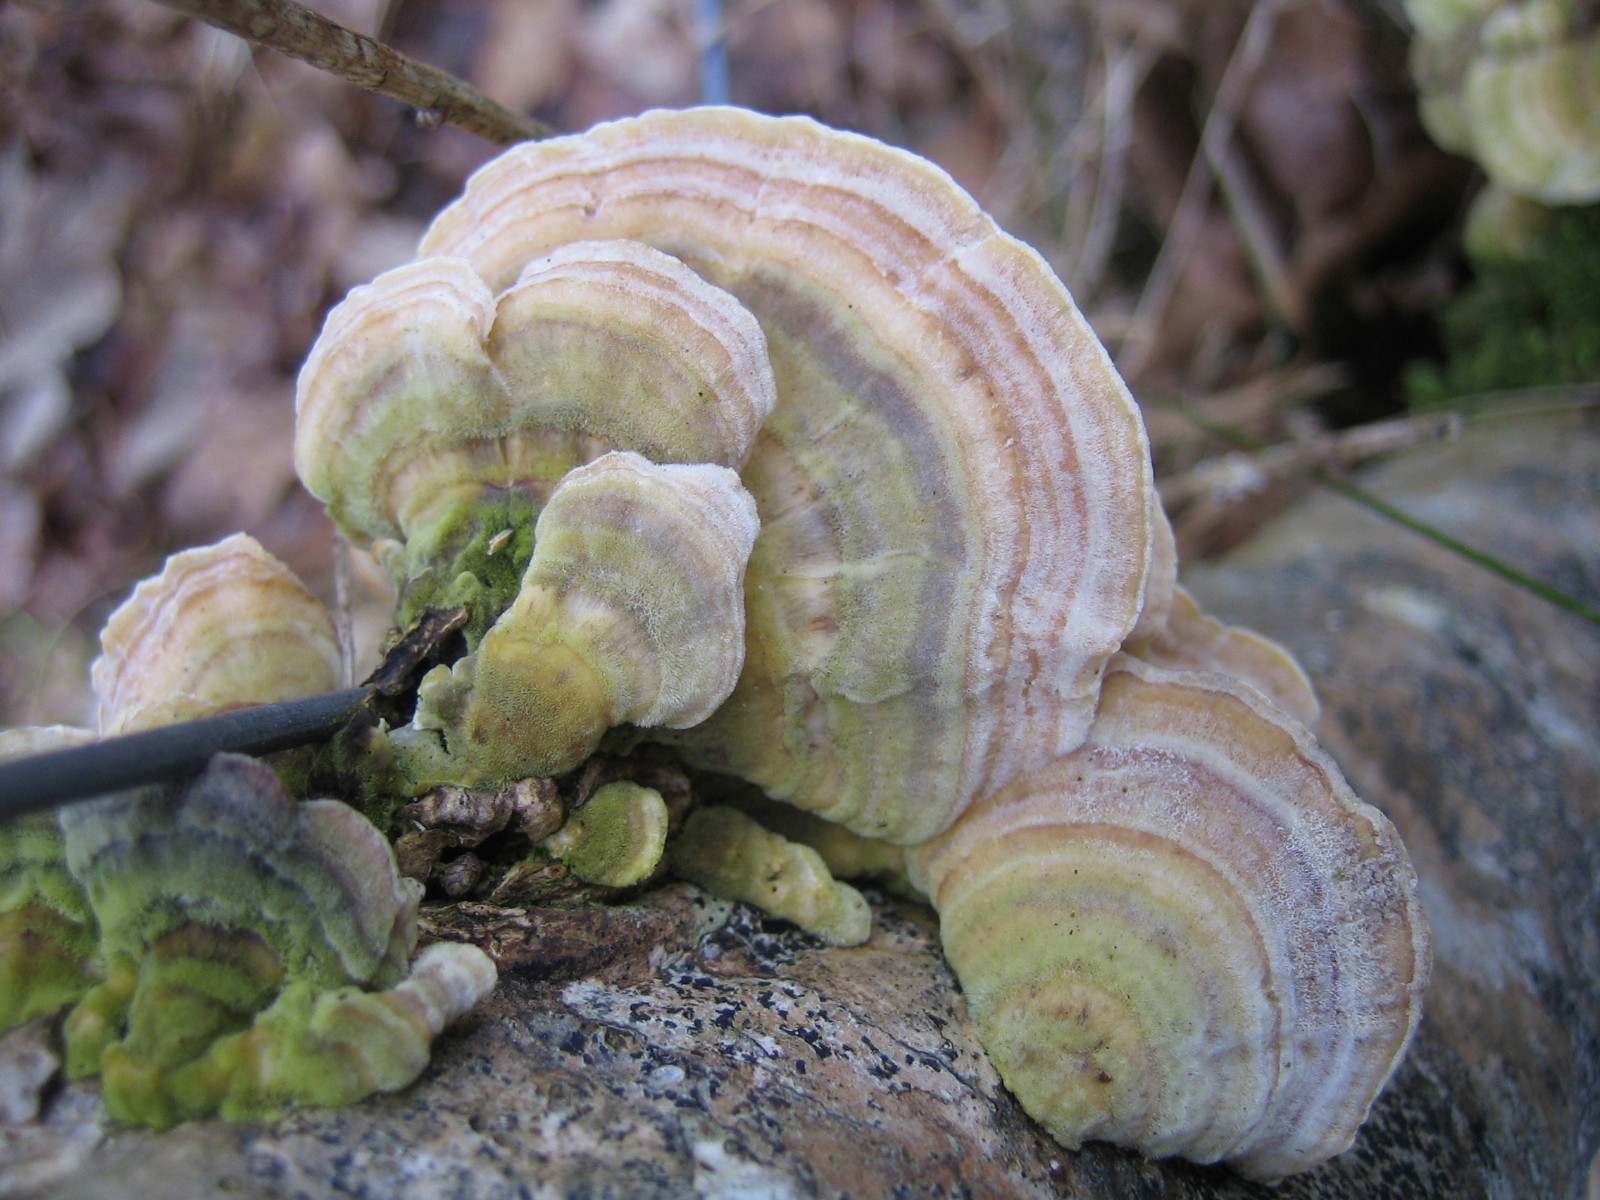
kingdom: Fungi
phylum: Basidiomycota
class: Agaricomycetes
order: Polyporales
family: Polyporaceae
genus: Trametes
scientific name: Trametes versicolor
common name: broget læderporesvamp
